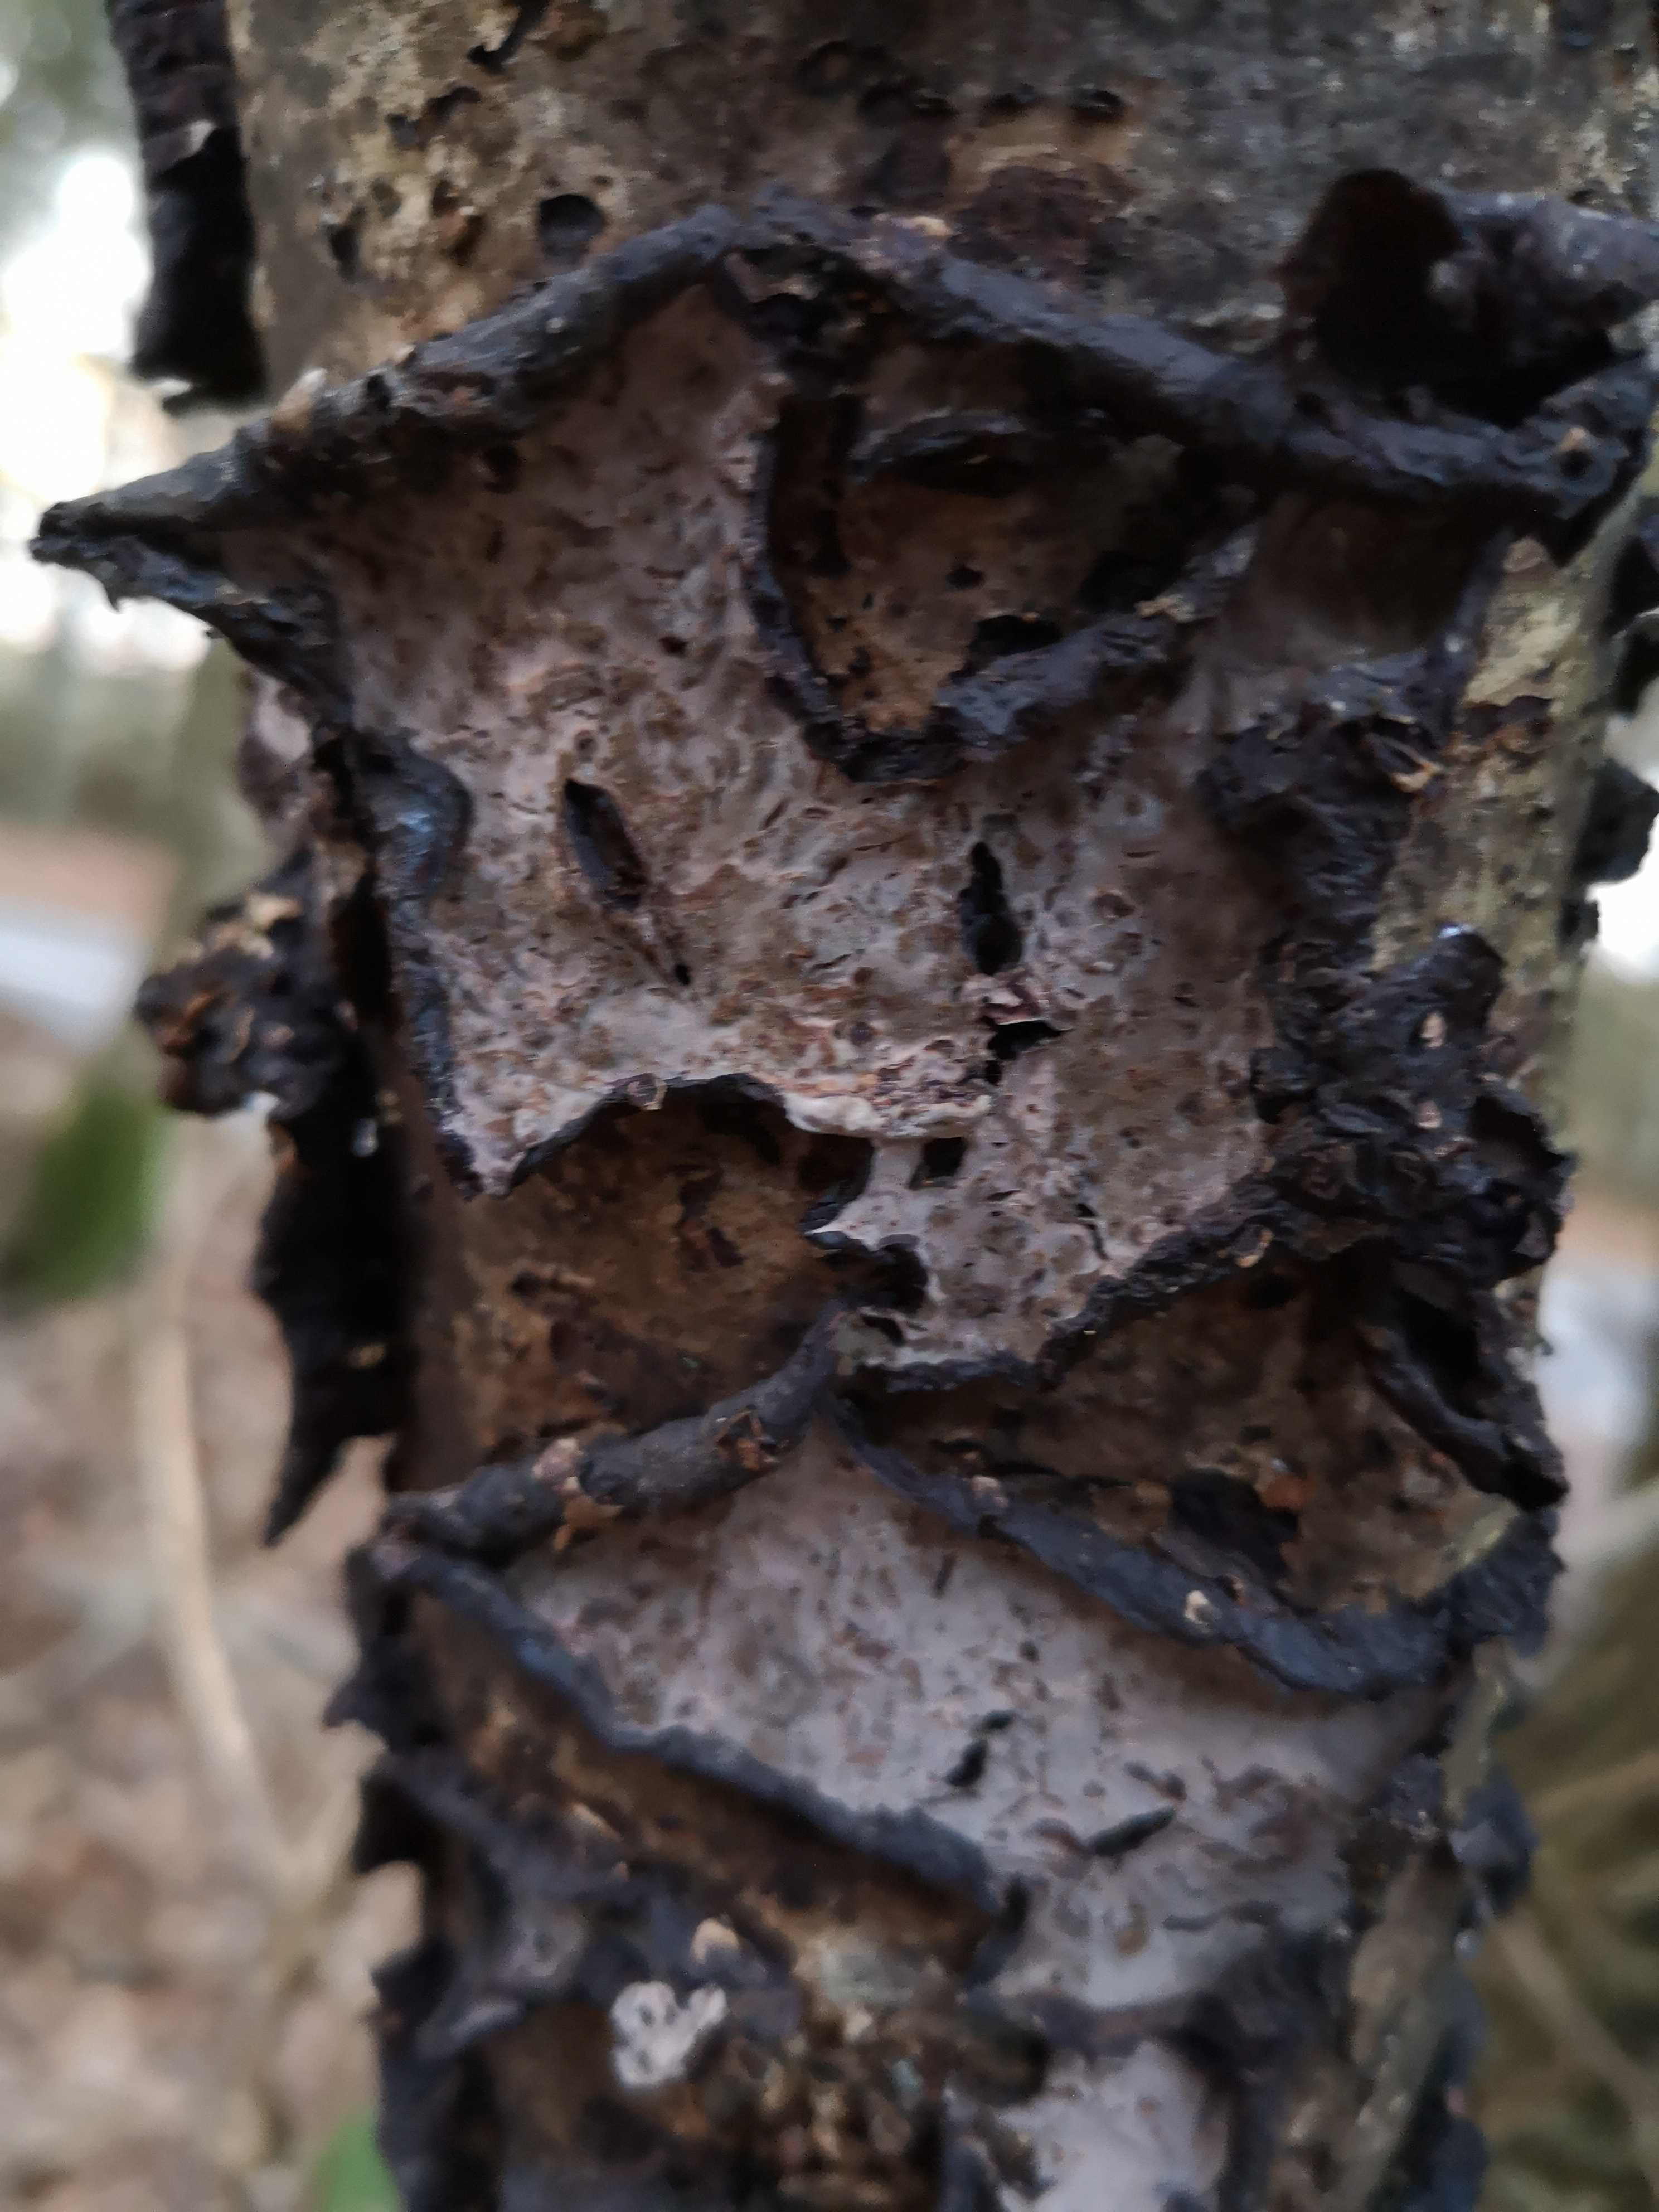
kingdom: Fungi
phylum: Basidiomycota
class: Agaricomycetes
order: Russulales
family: Peniophoraceae
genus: Peniophora
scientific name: Peniophora quercina
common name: ege-voksskind
